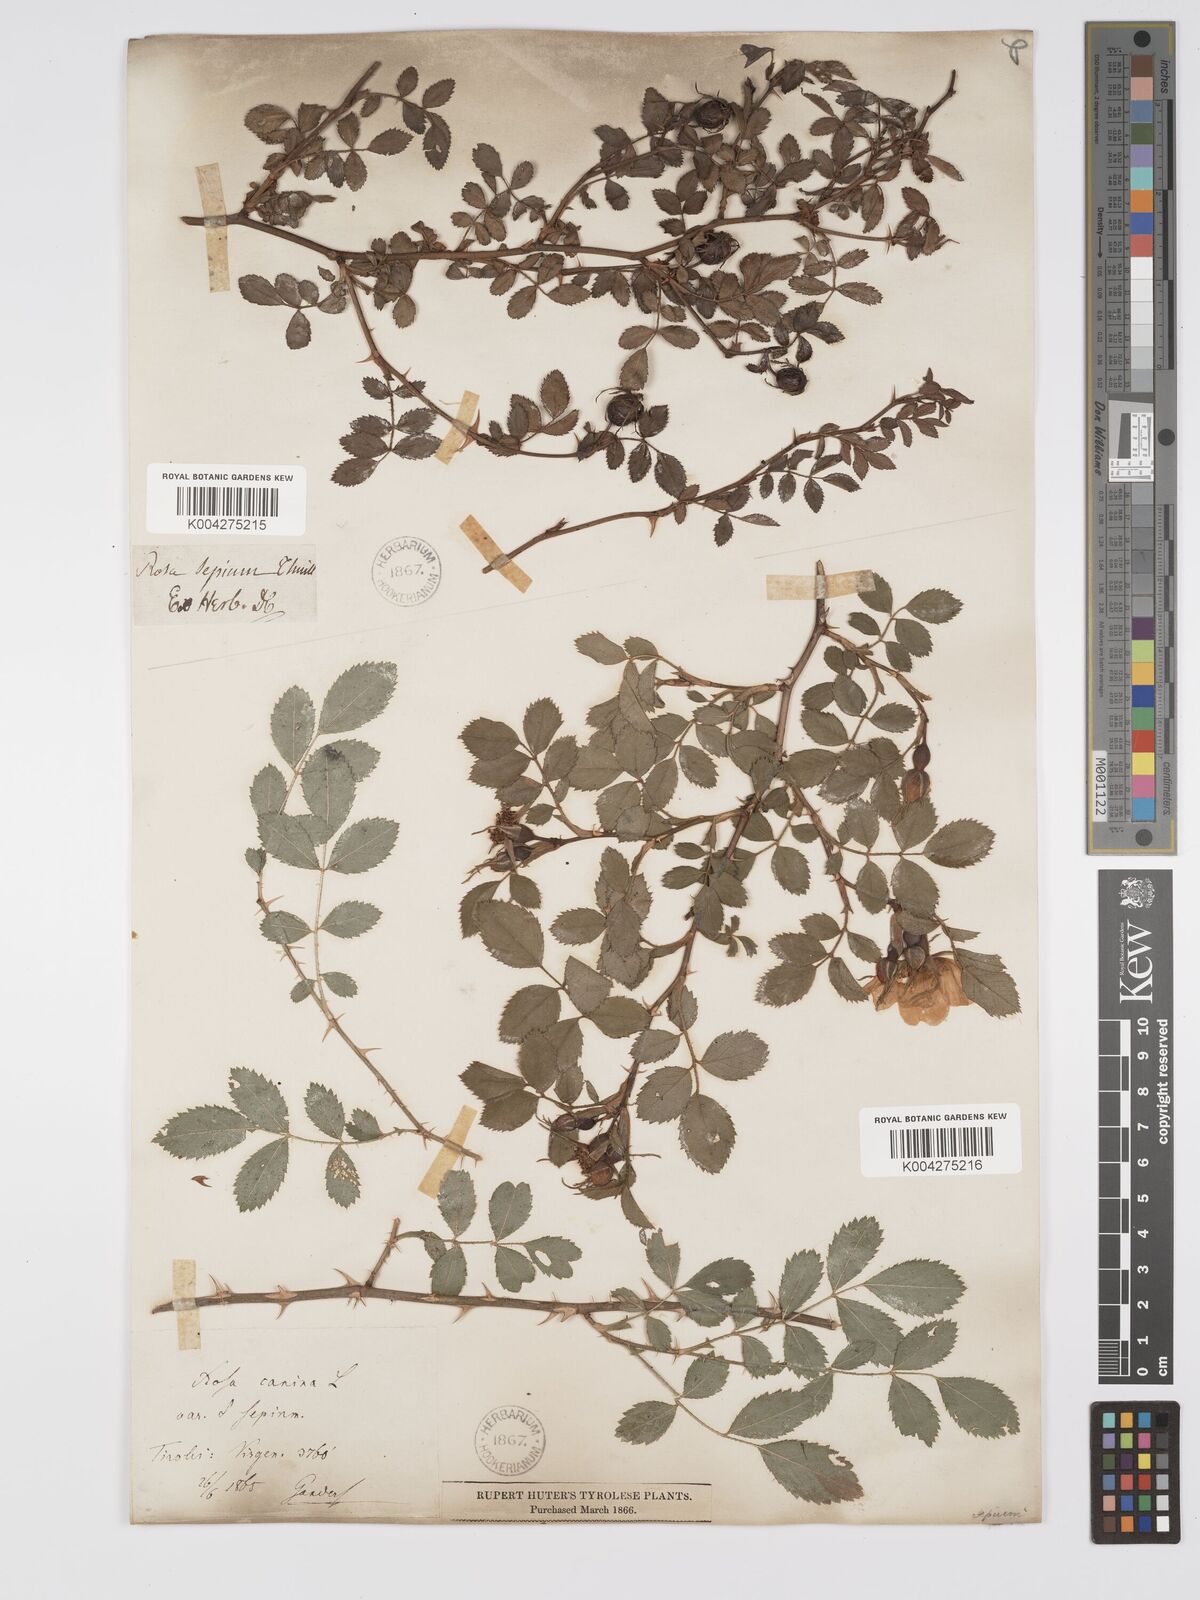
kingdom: Plantae
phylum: Tracheophyta
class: Magnoliopsida
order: Rosales
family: Rosaceae
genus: Rosa
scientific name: Rosa
